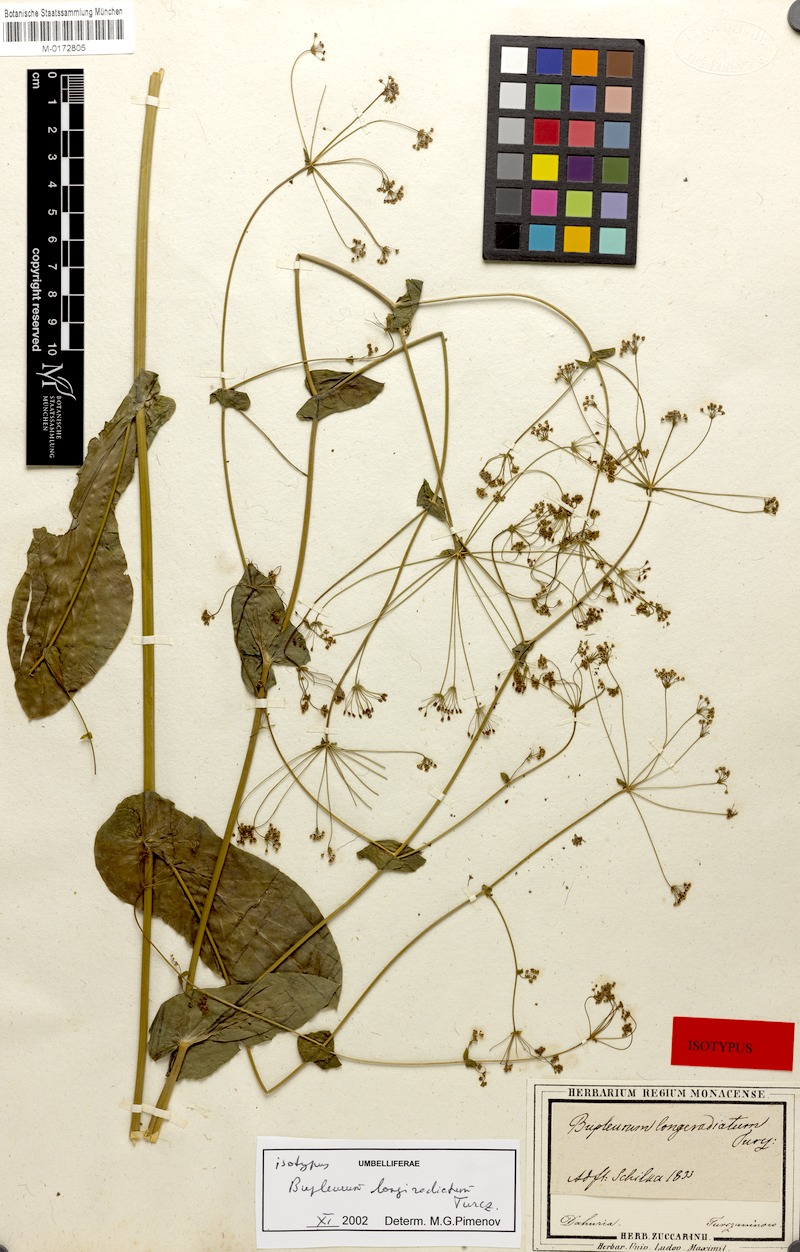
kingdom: Plantae
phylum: Tracheophyta
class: Magnoliopsida
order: Apiales
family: Apiaceae
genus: Bupleurum
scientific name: Bupleurum longeradiatum
